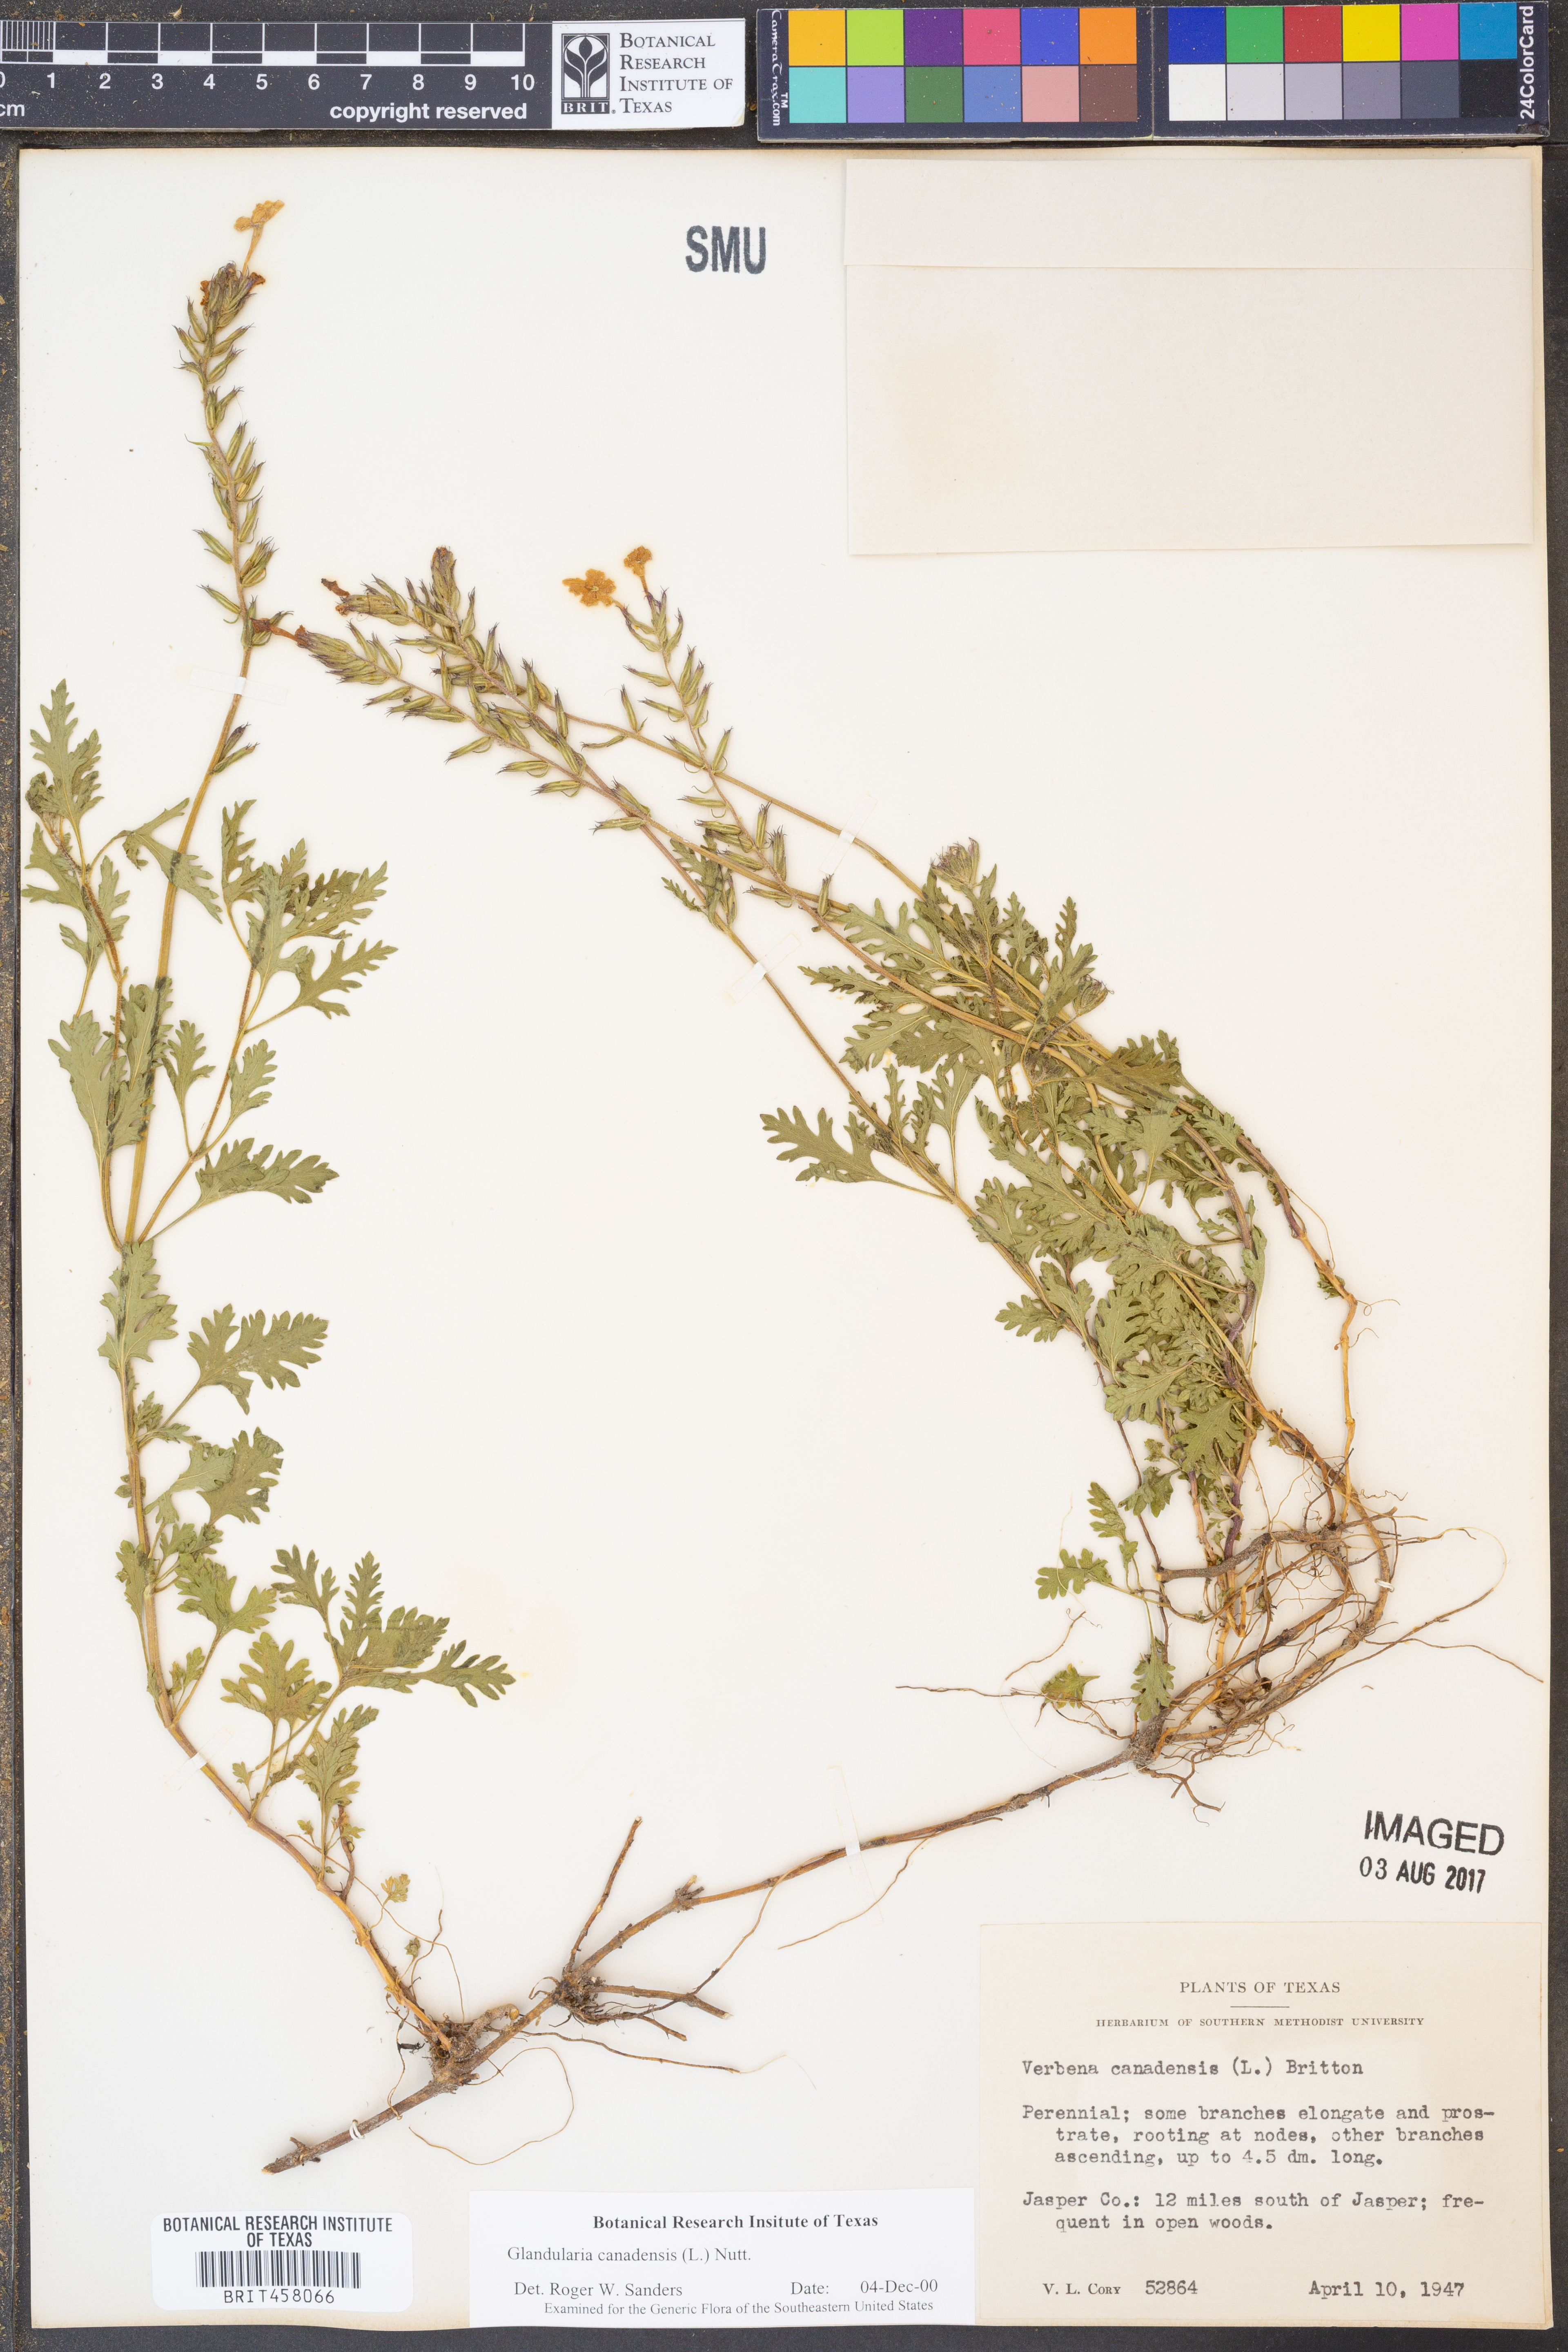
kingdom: Plantae
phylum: Tracheophyta
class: Magnoliopsida
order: Lamiales
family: Verbenaceae
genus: Verbena
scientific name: Verbena canadensis
